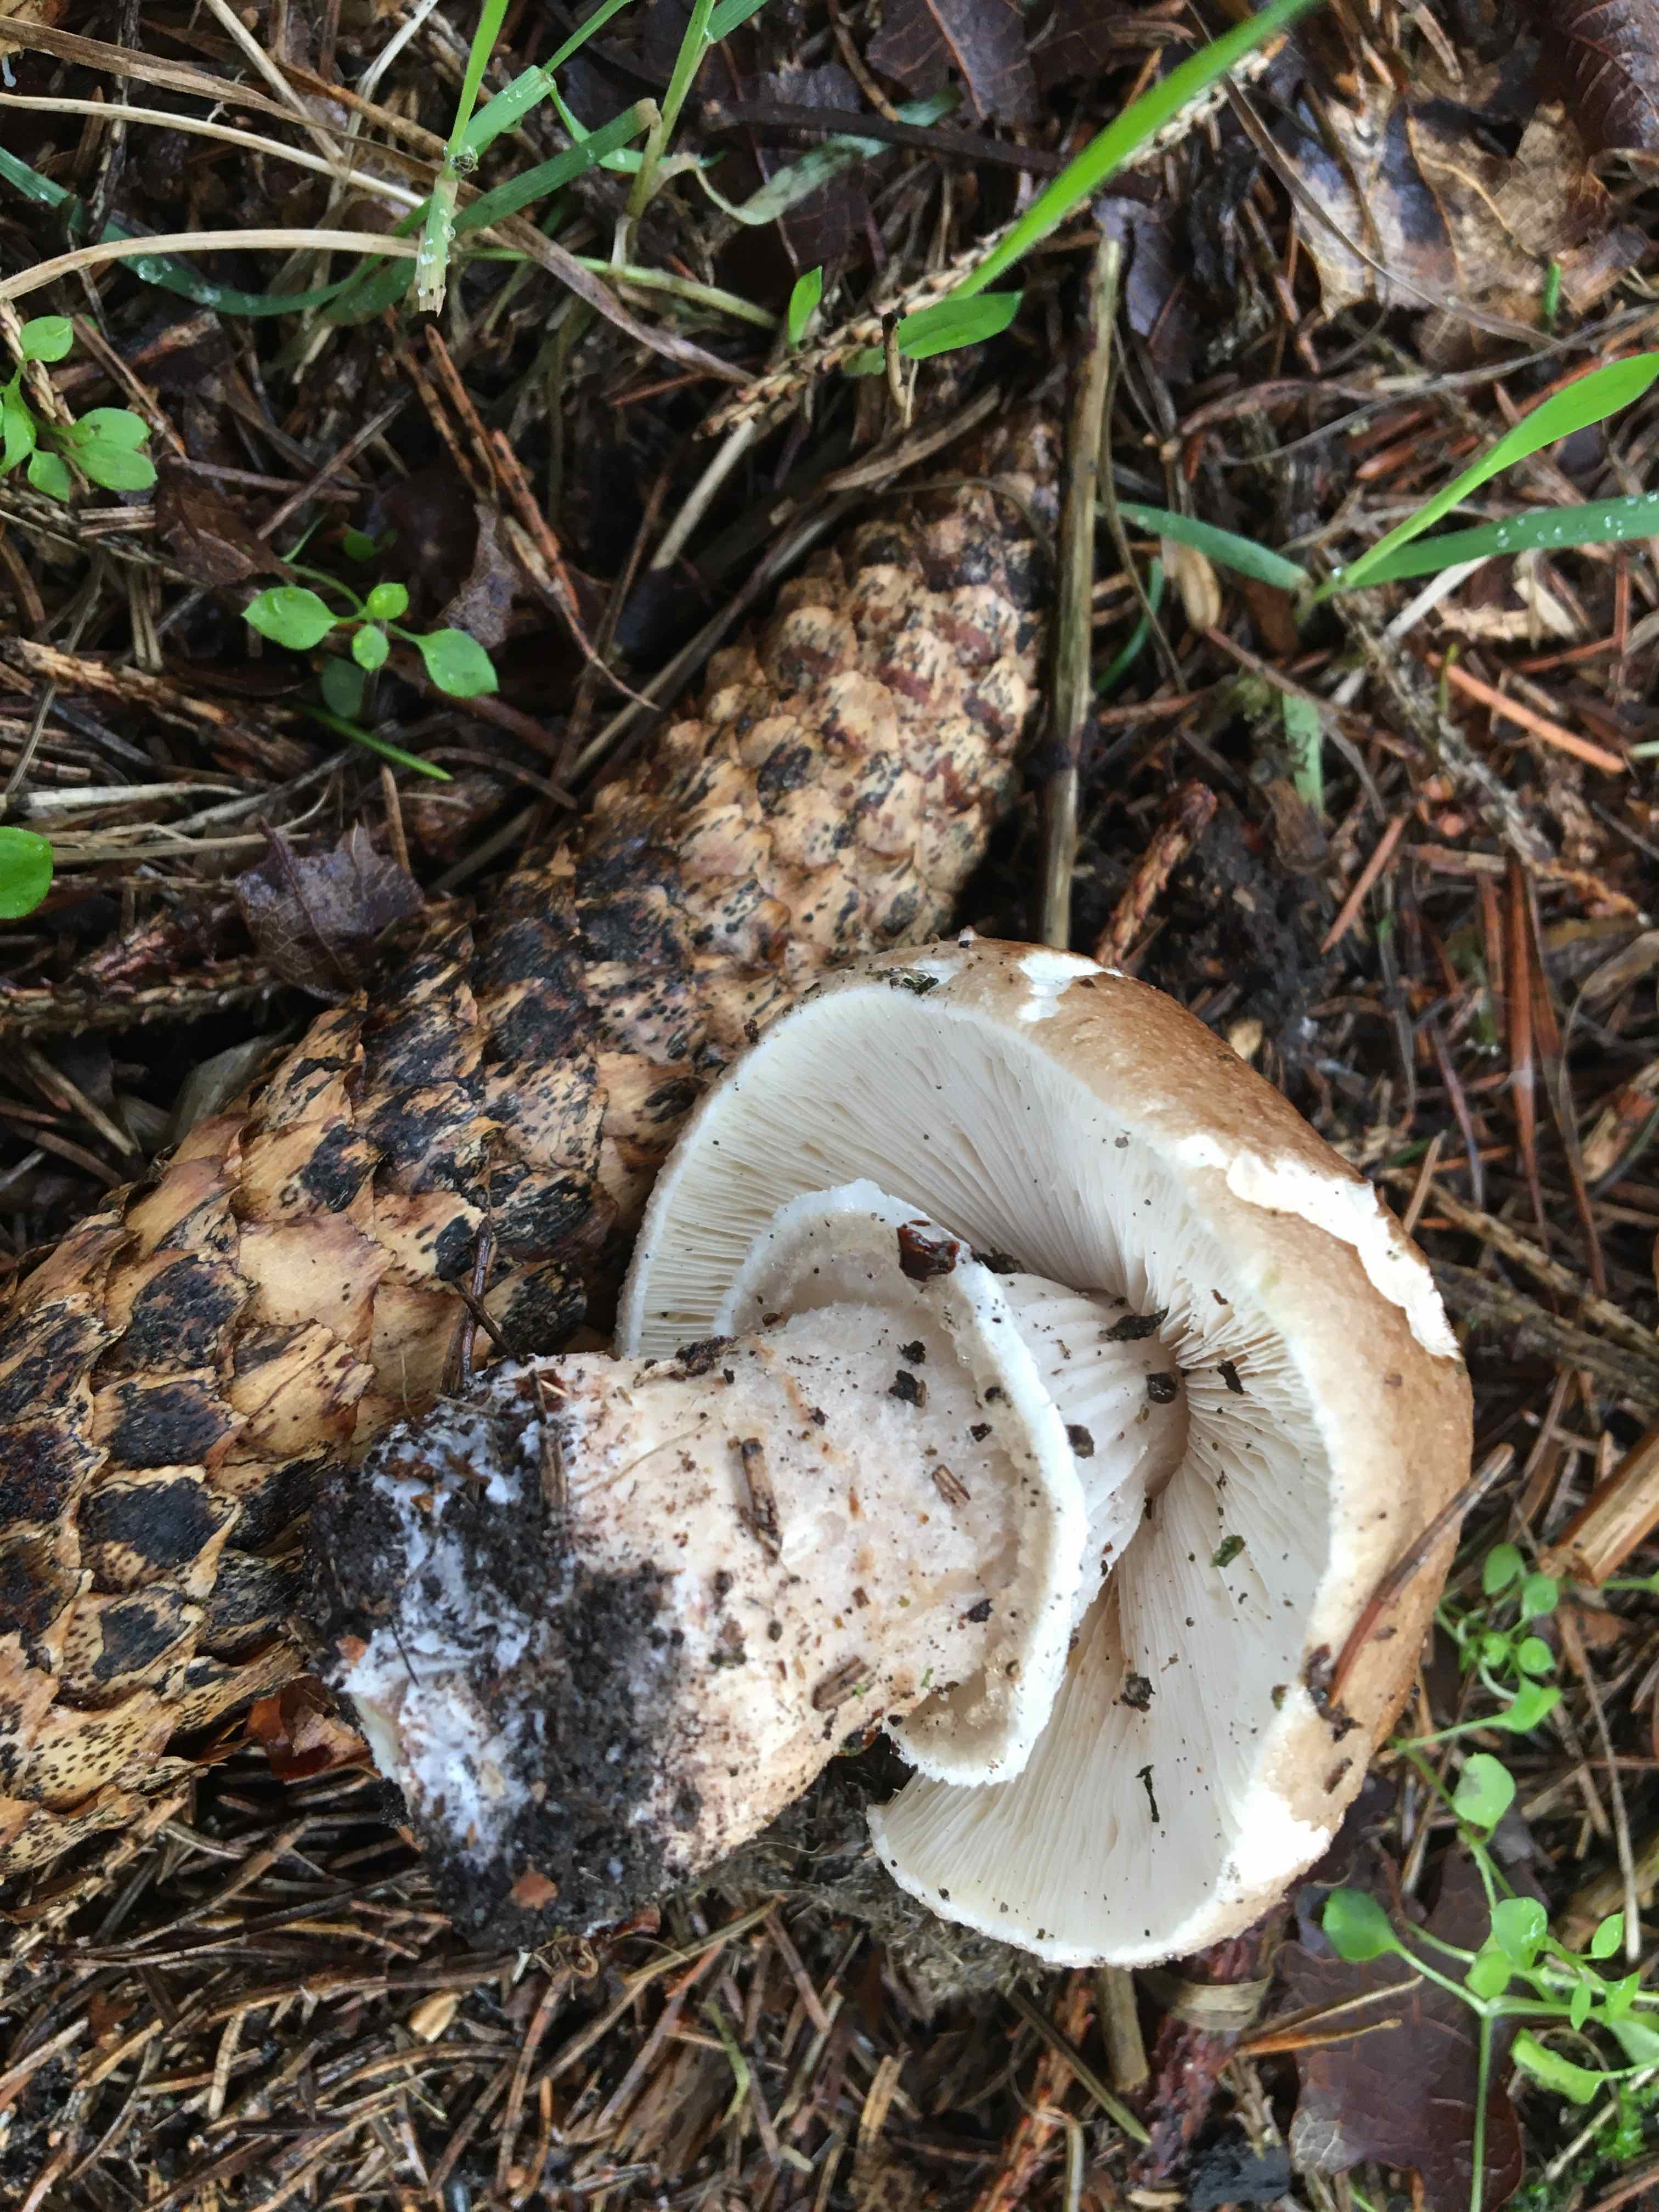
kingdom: Fungi
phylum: Basidiomycota
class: Agaricomycetes
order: Agaricales
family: Agaricaceae
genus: Agaricus
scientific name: Agaricus augustus
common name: prægtig champignon
